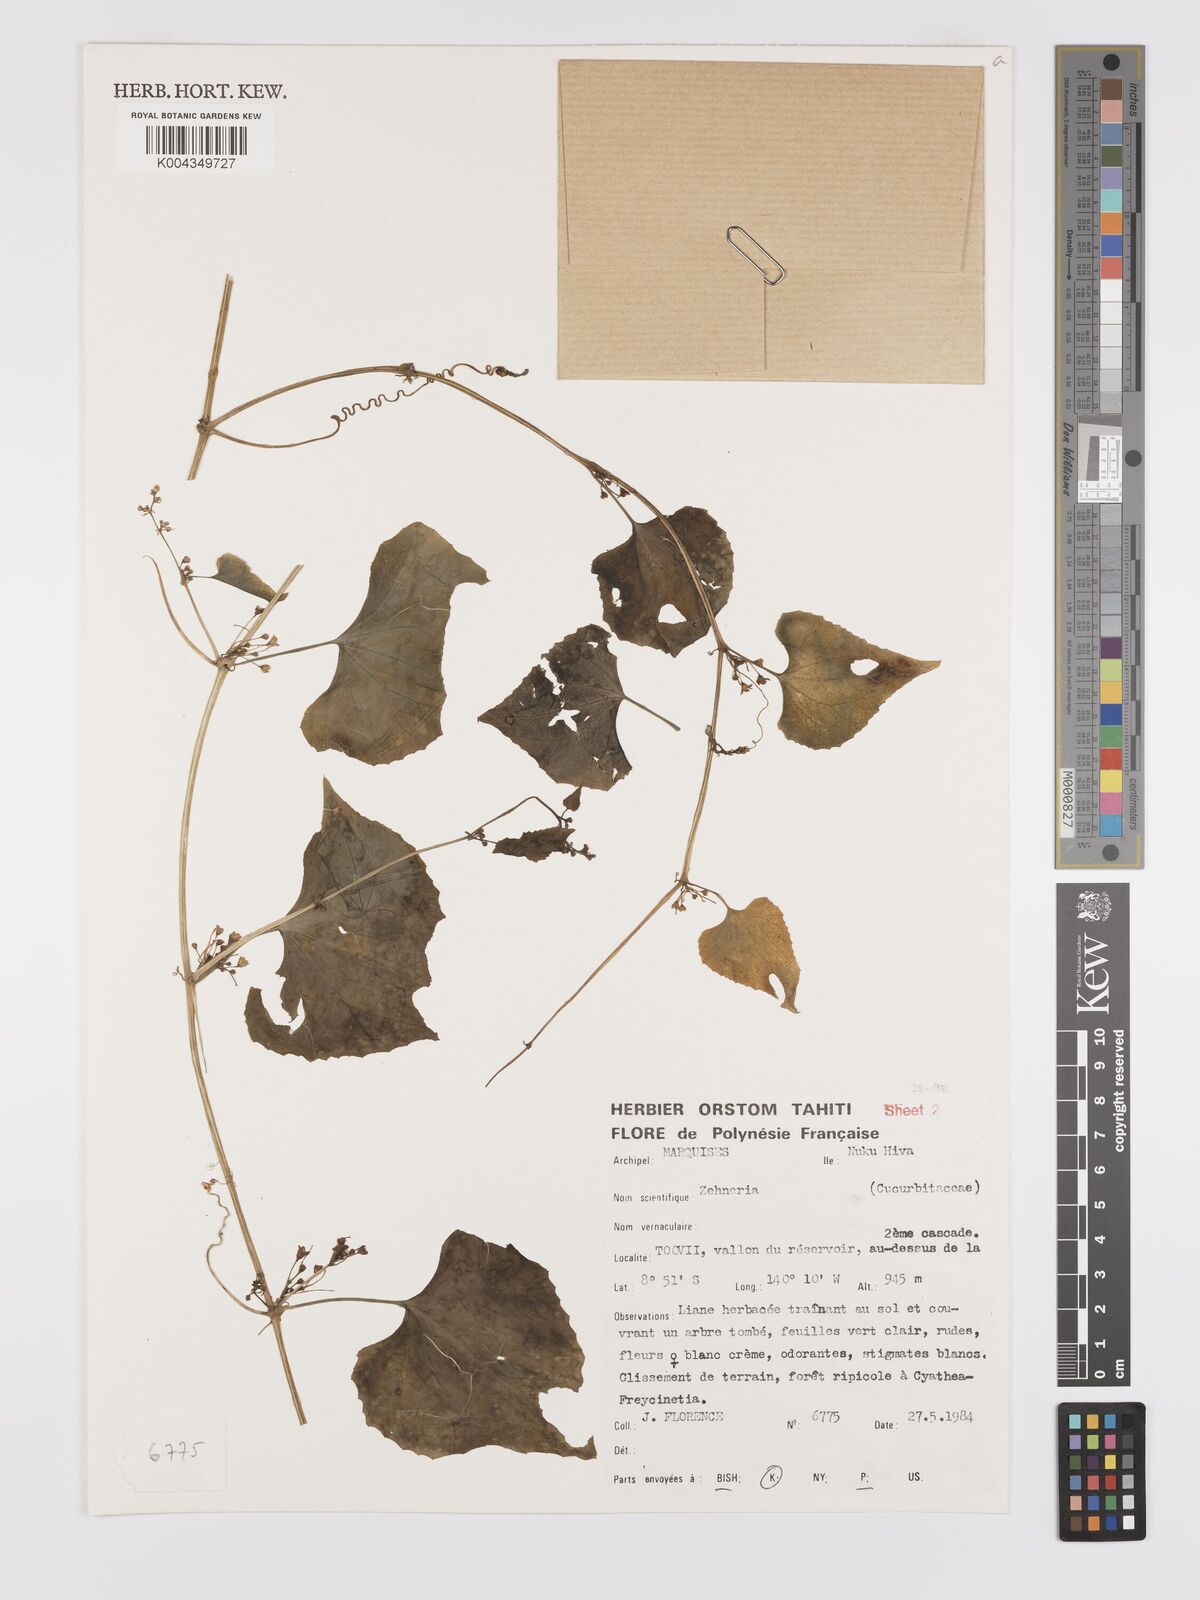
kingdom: Plantae
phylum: Tracheophyta
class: Magnoliopsida
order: Cucurbitales
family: Cucurbitaceae
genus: Zehneria
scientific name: Zehneria
